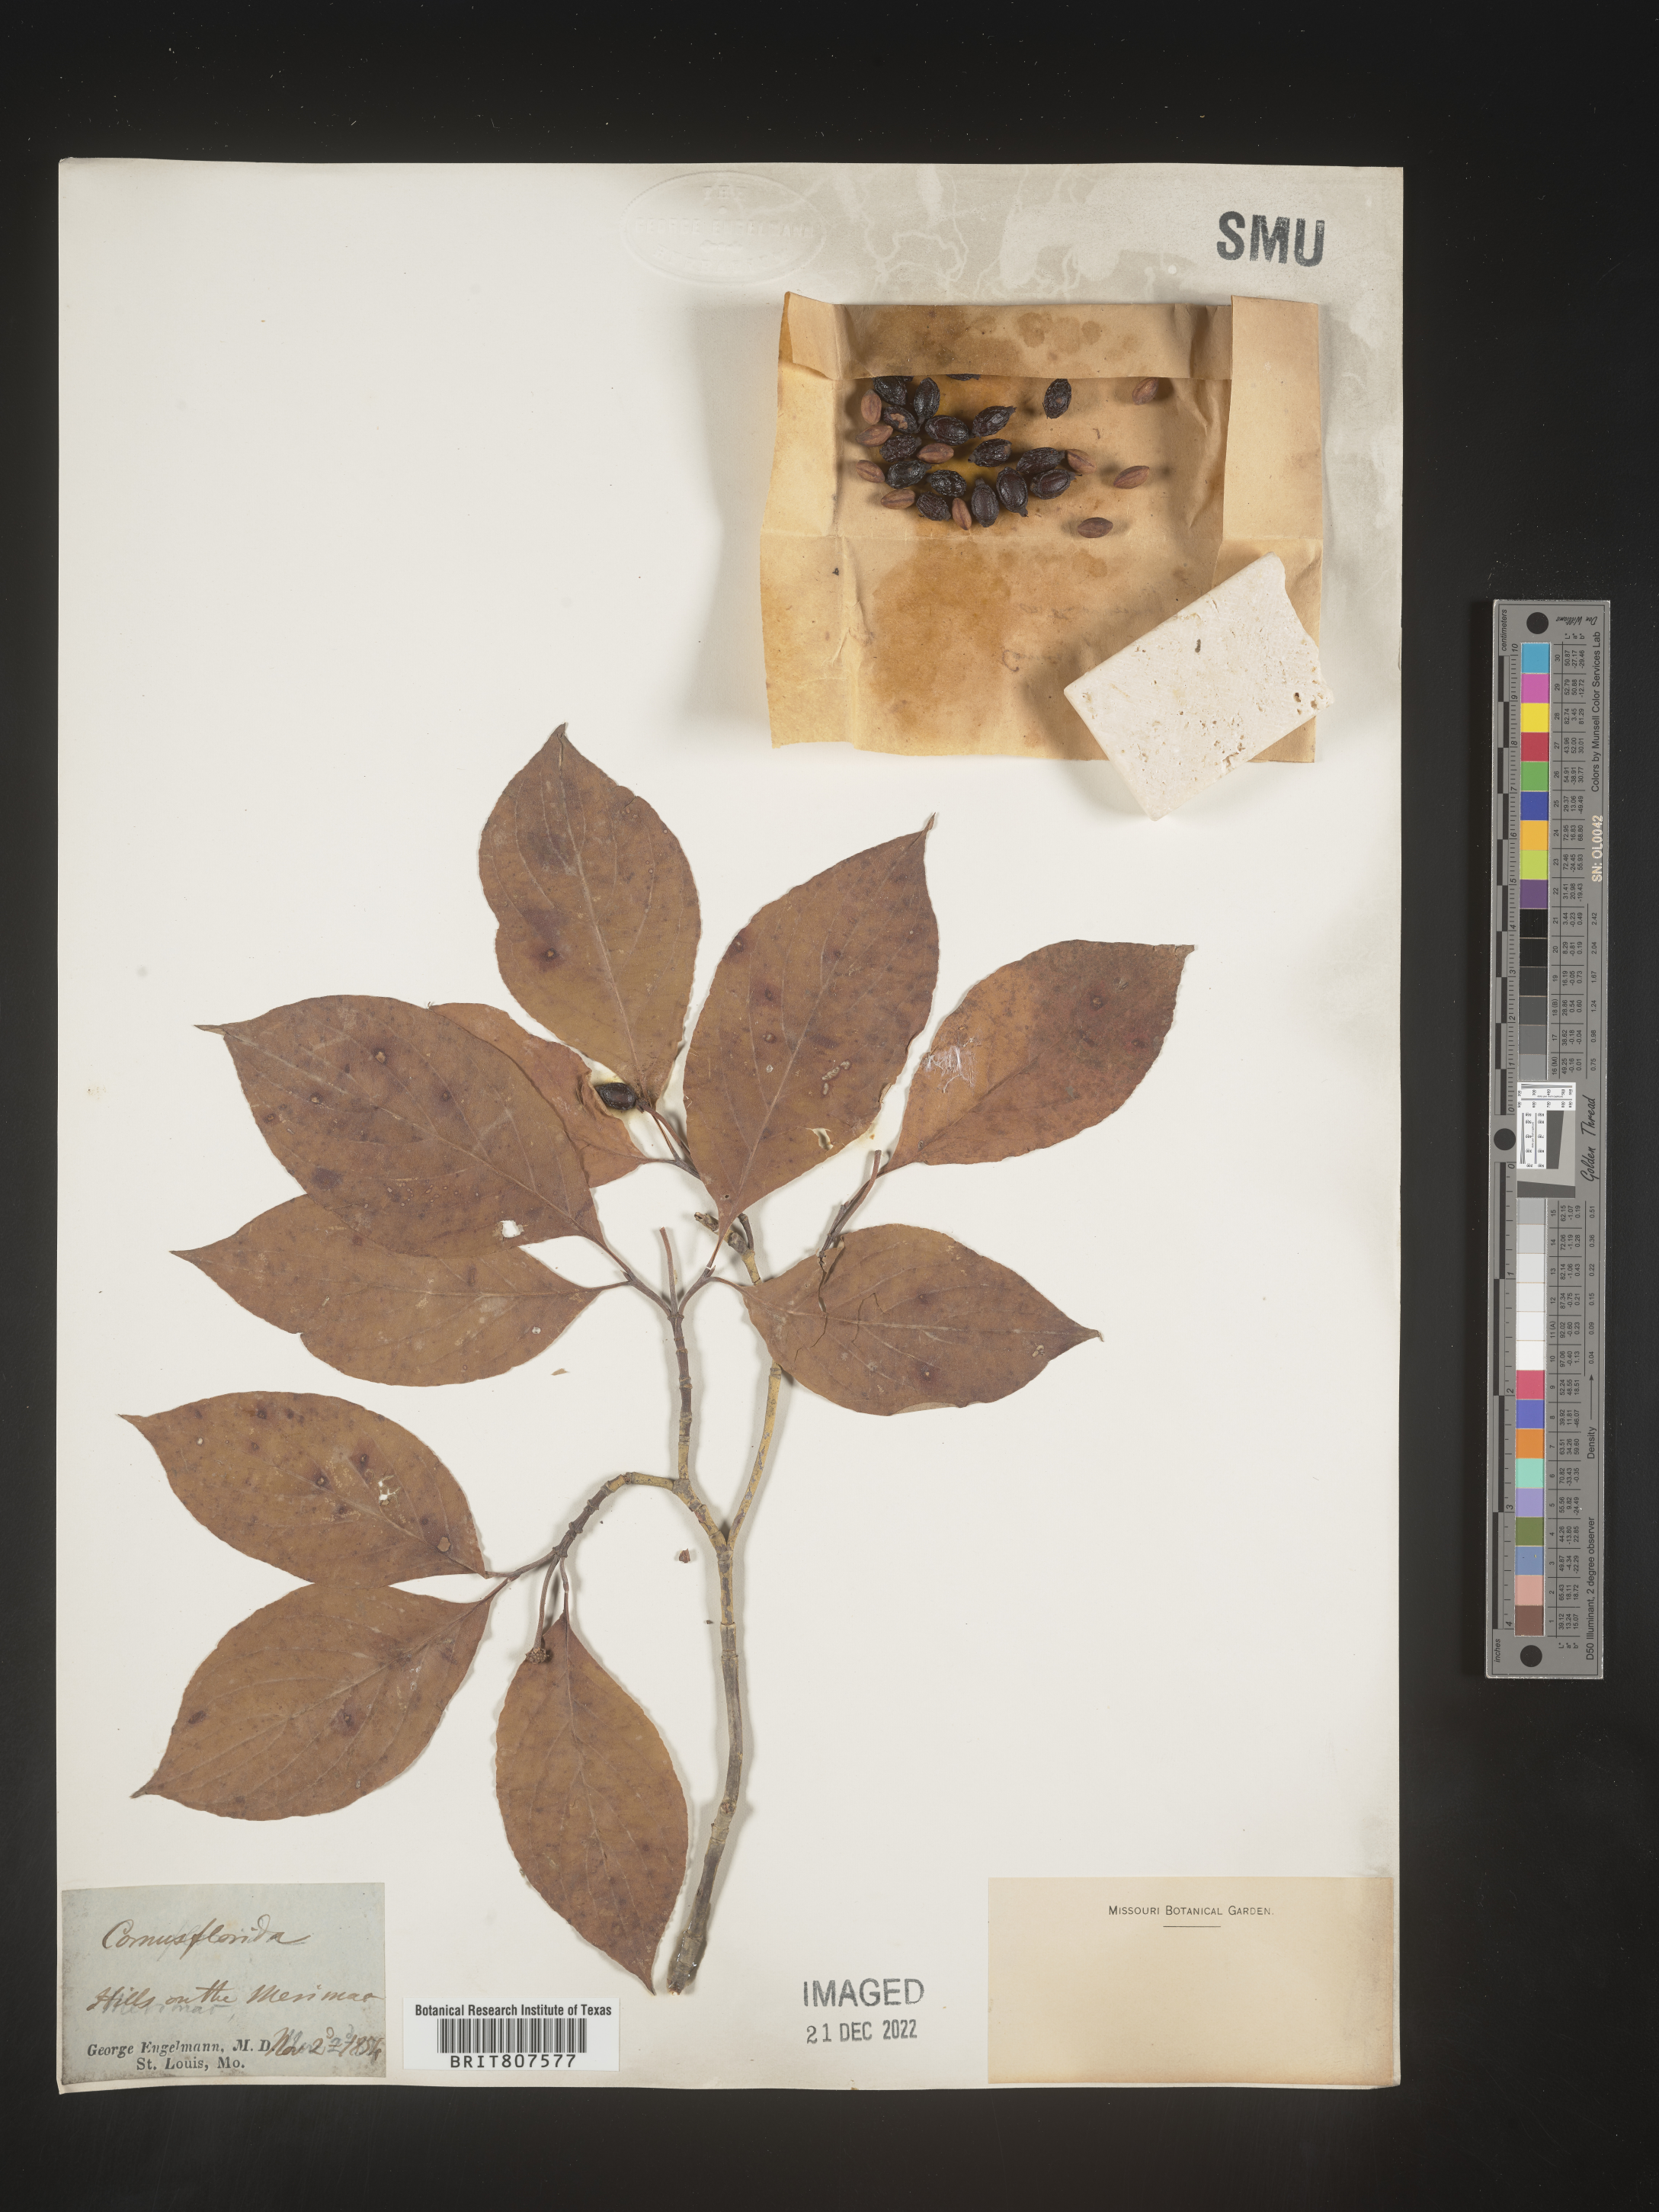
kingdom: Plantae
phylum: Tracheophyta
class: Magnoliopsida
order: Cornales
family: Cornaceae
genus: Cornus
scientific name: Cornus florida
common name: Flowering dogwood
